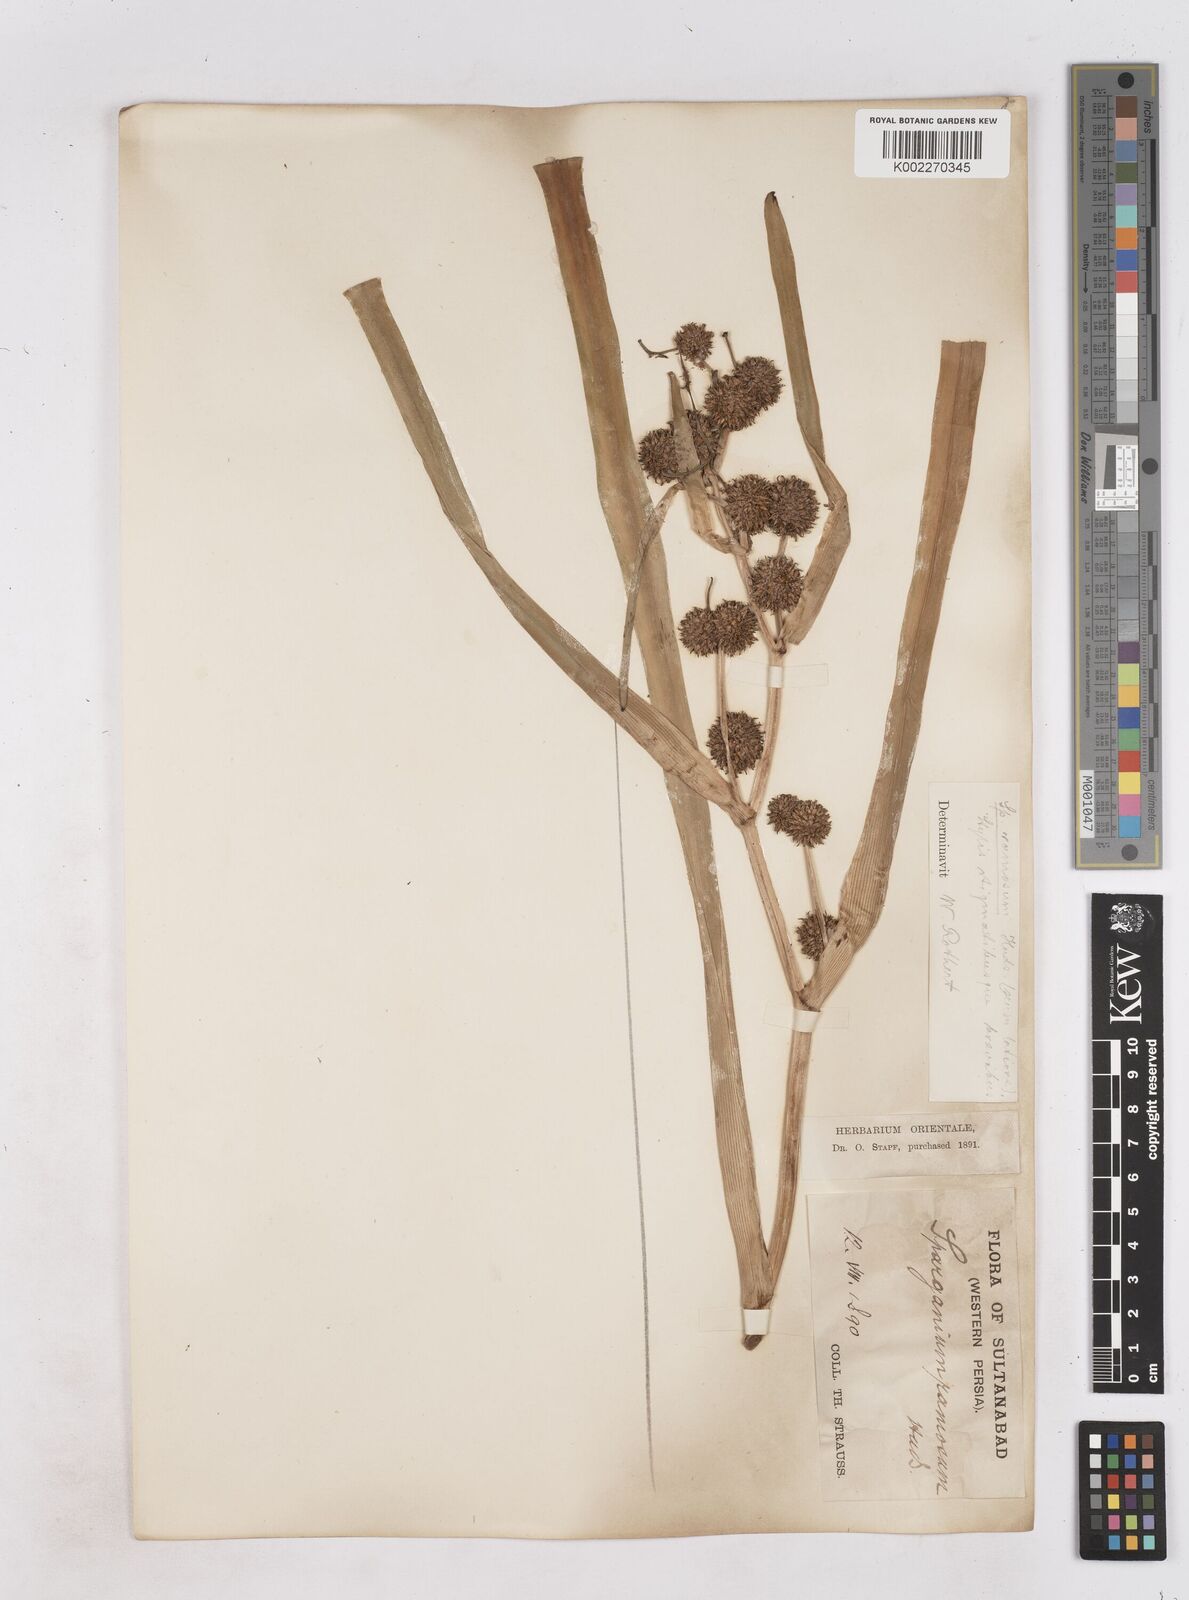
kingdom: Plantae
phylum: Tracheophyta
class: Liliopsida
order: Poales
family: Typhaceae
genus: Sparganium
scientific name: Sparganium erectum
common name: Branched bur-reed
